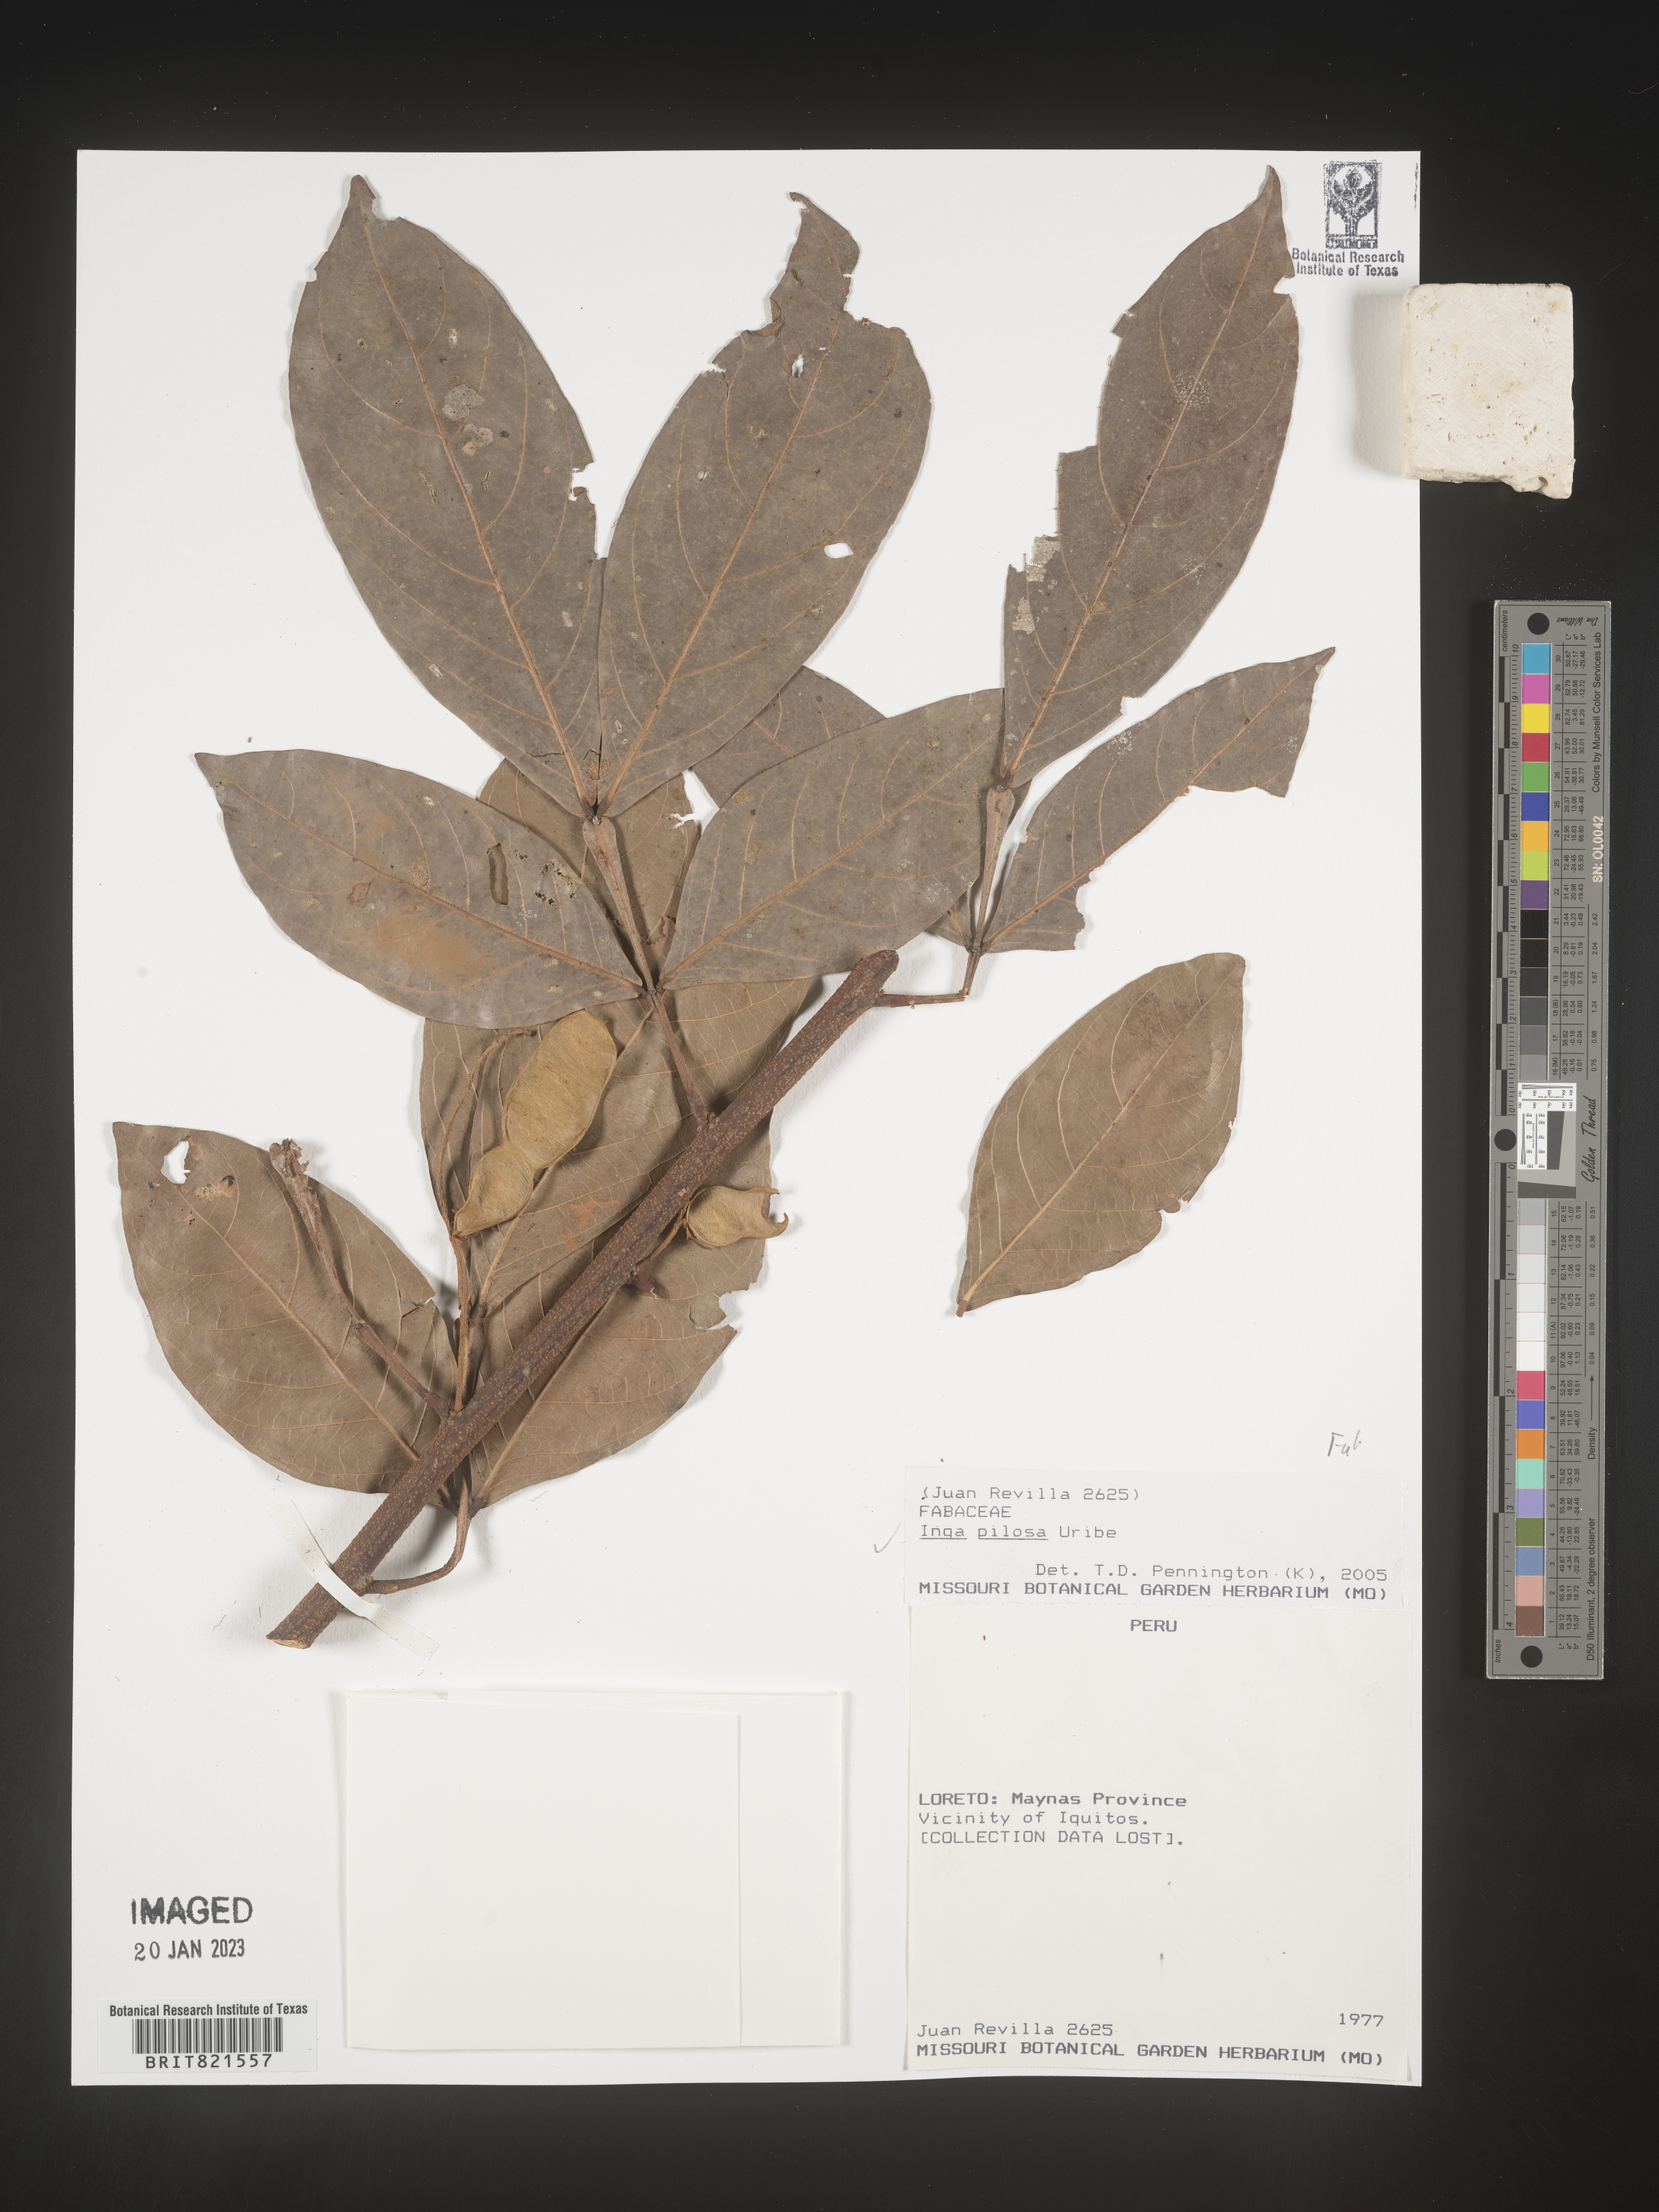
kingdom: Plantae
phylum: Tracheophyta
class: Magnoliopsida
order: Fabales
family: Fabaceae
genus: Inga
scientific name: Inga
